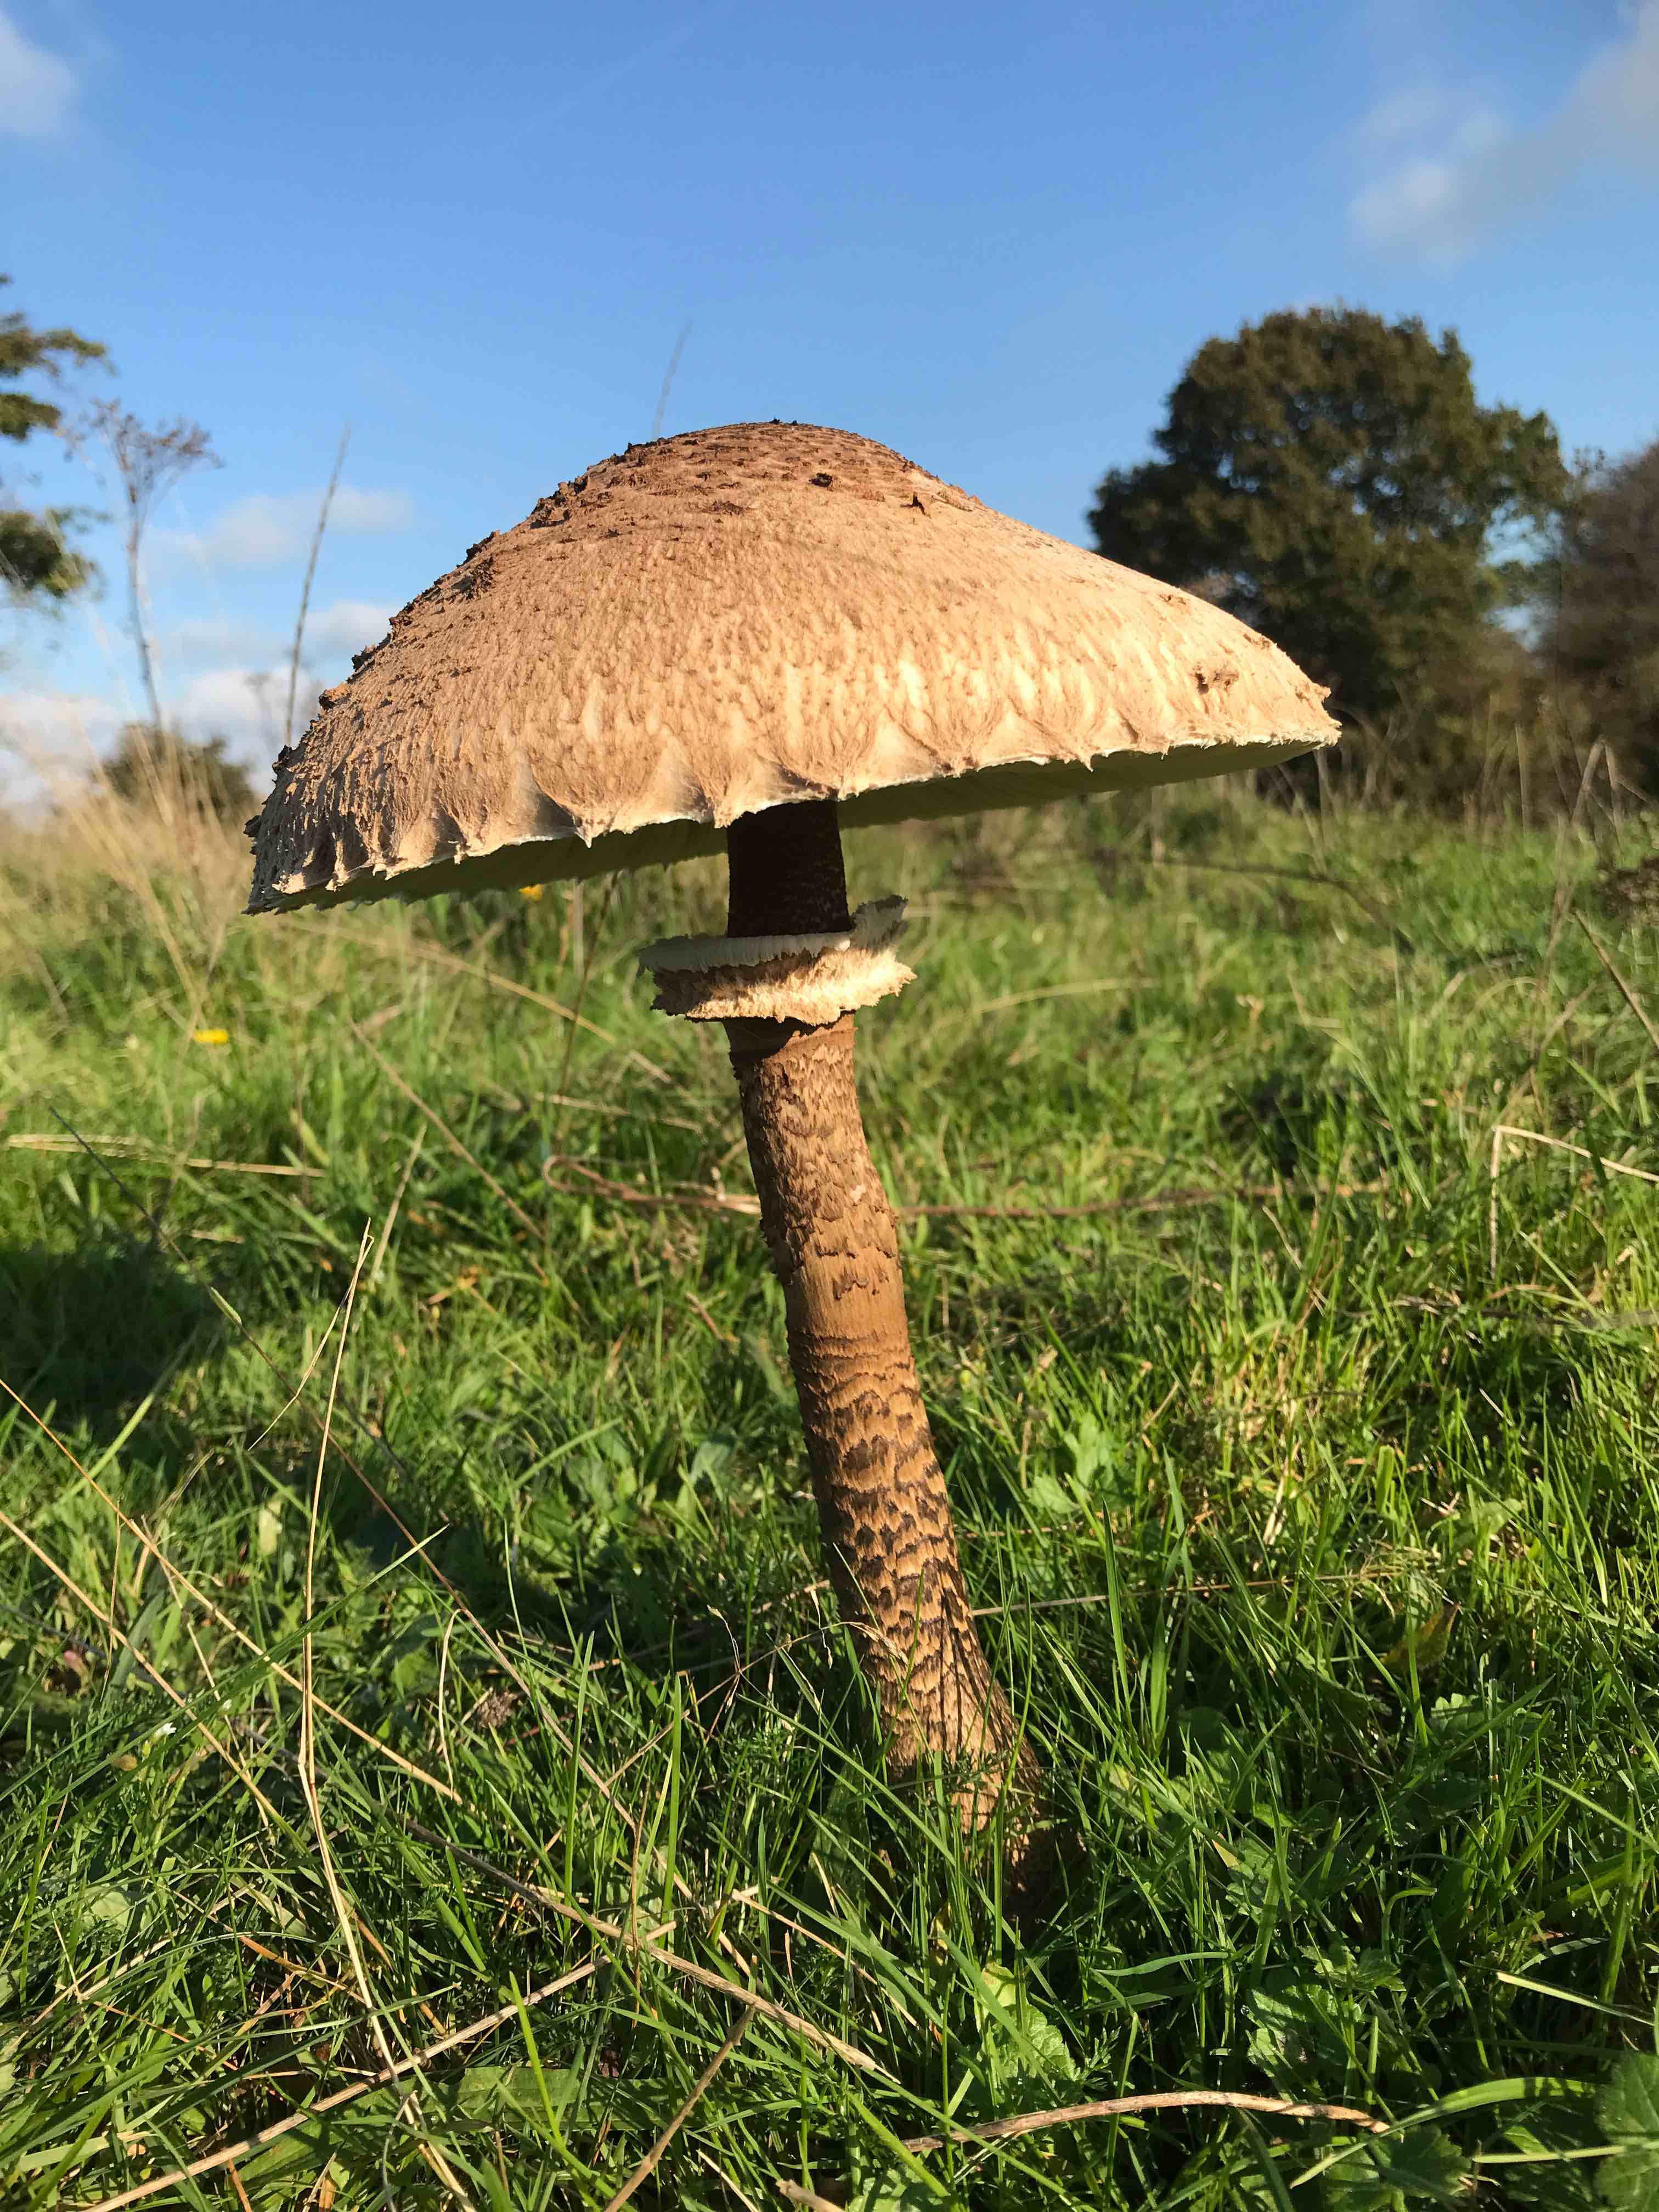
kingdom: Fungi
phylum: Basidiomycota
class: Agaricomycetes
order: Agaricales
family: Agaricaceae
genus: Macrolepiota
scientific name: Macrolepiota procera
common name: stor kæmpeparasolhat
